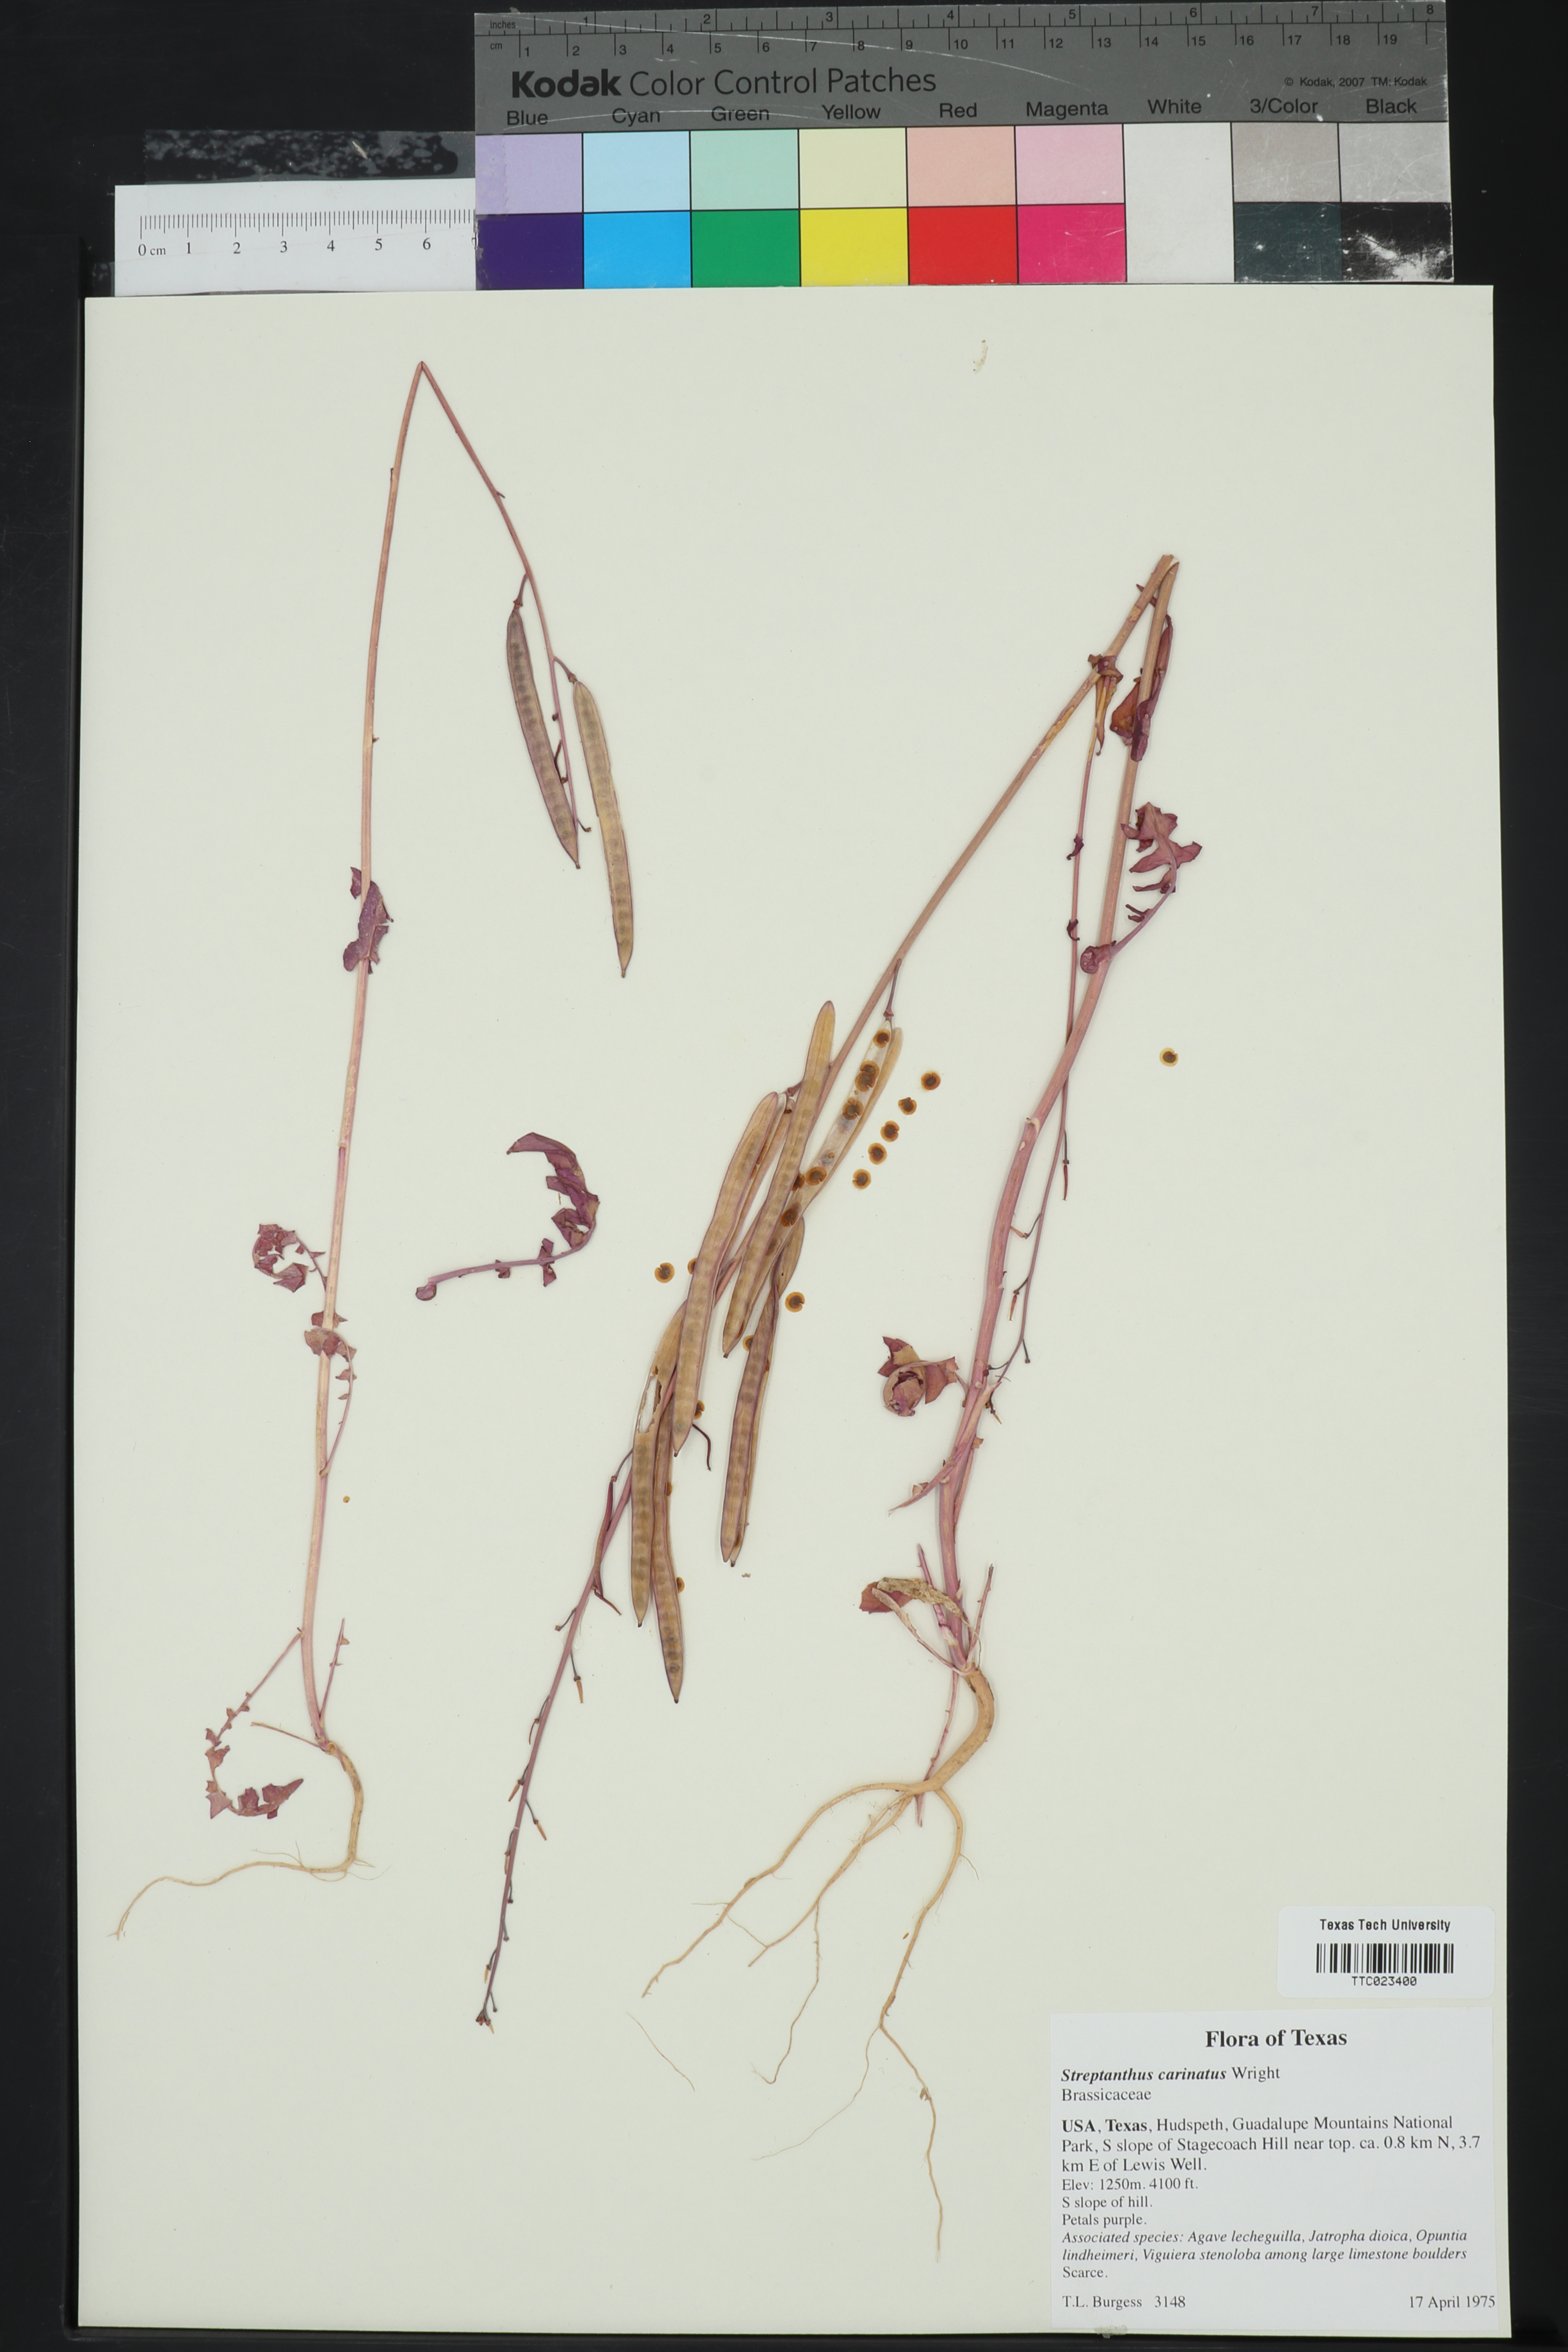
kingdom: Plantae
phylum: Tracheophyta
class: Magnoliopsida
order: Brassicales
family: Brassicaceae
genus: Streptanthus
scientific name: Streptanthus carinatus
